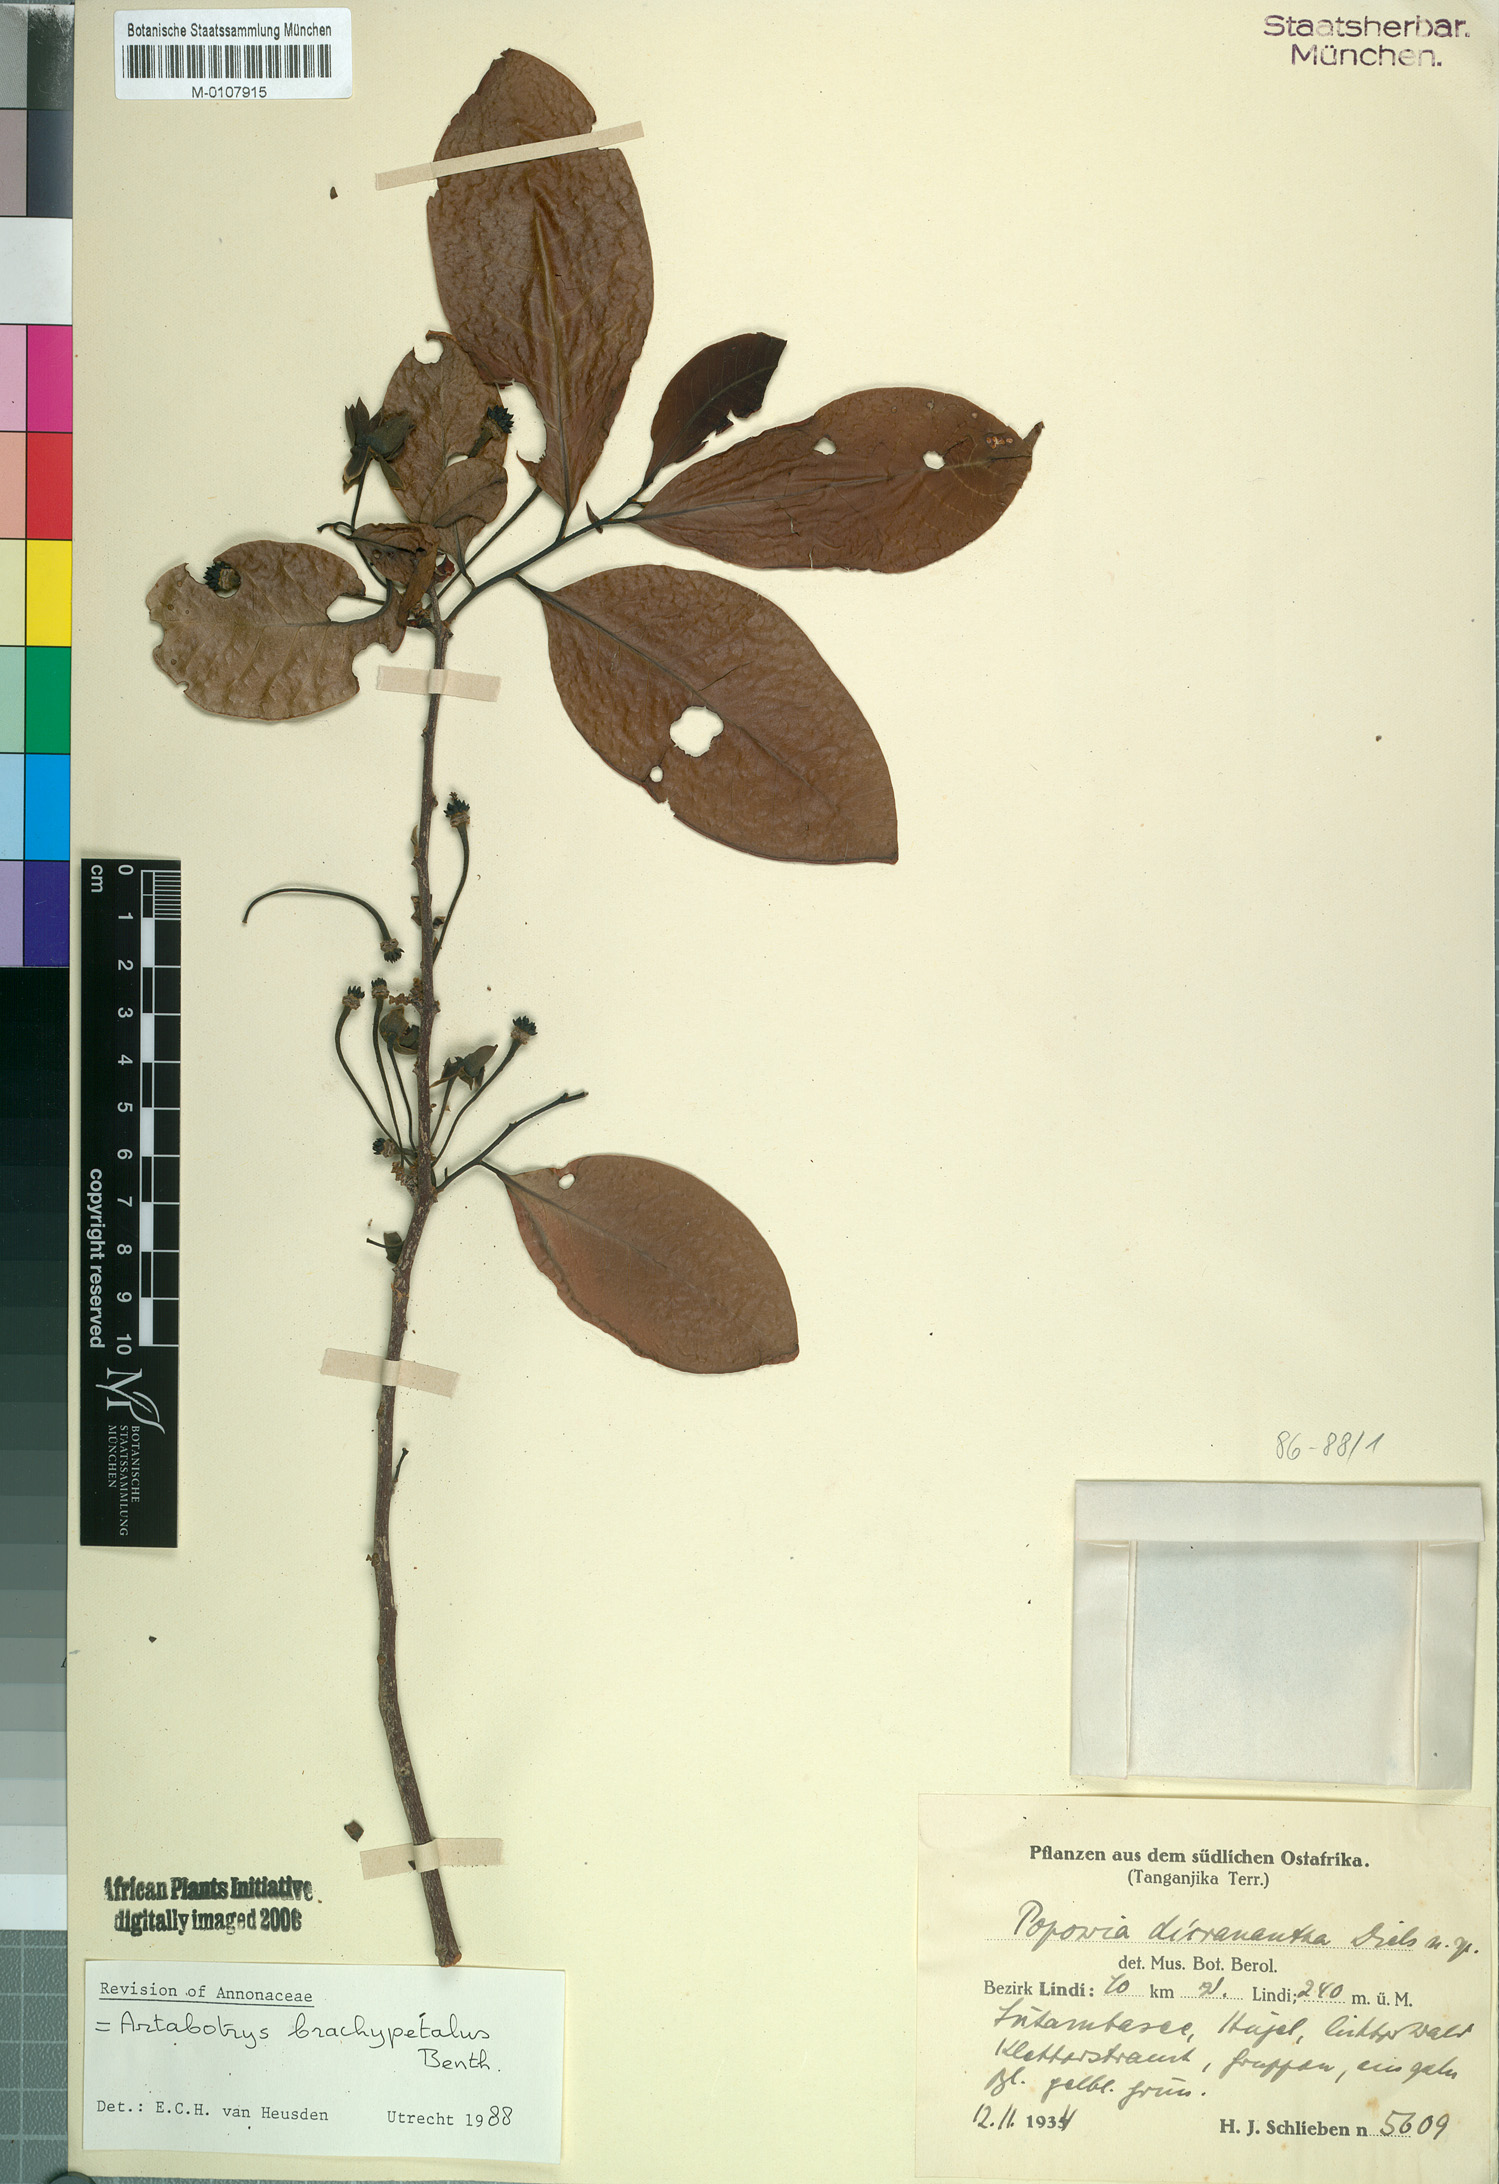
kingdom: Plantae
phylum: Tracheophyta
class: Magnoliopsida
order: Magnoliales
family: Annonaceae
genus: Artabotrys
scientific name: Artabotrys brachypetalus
